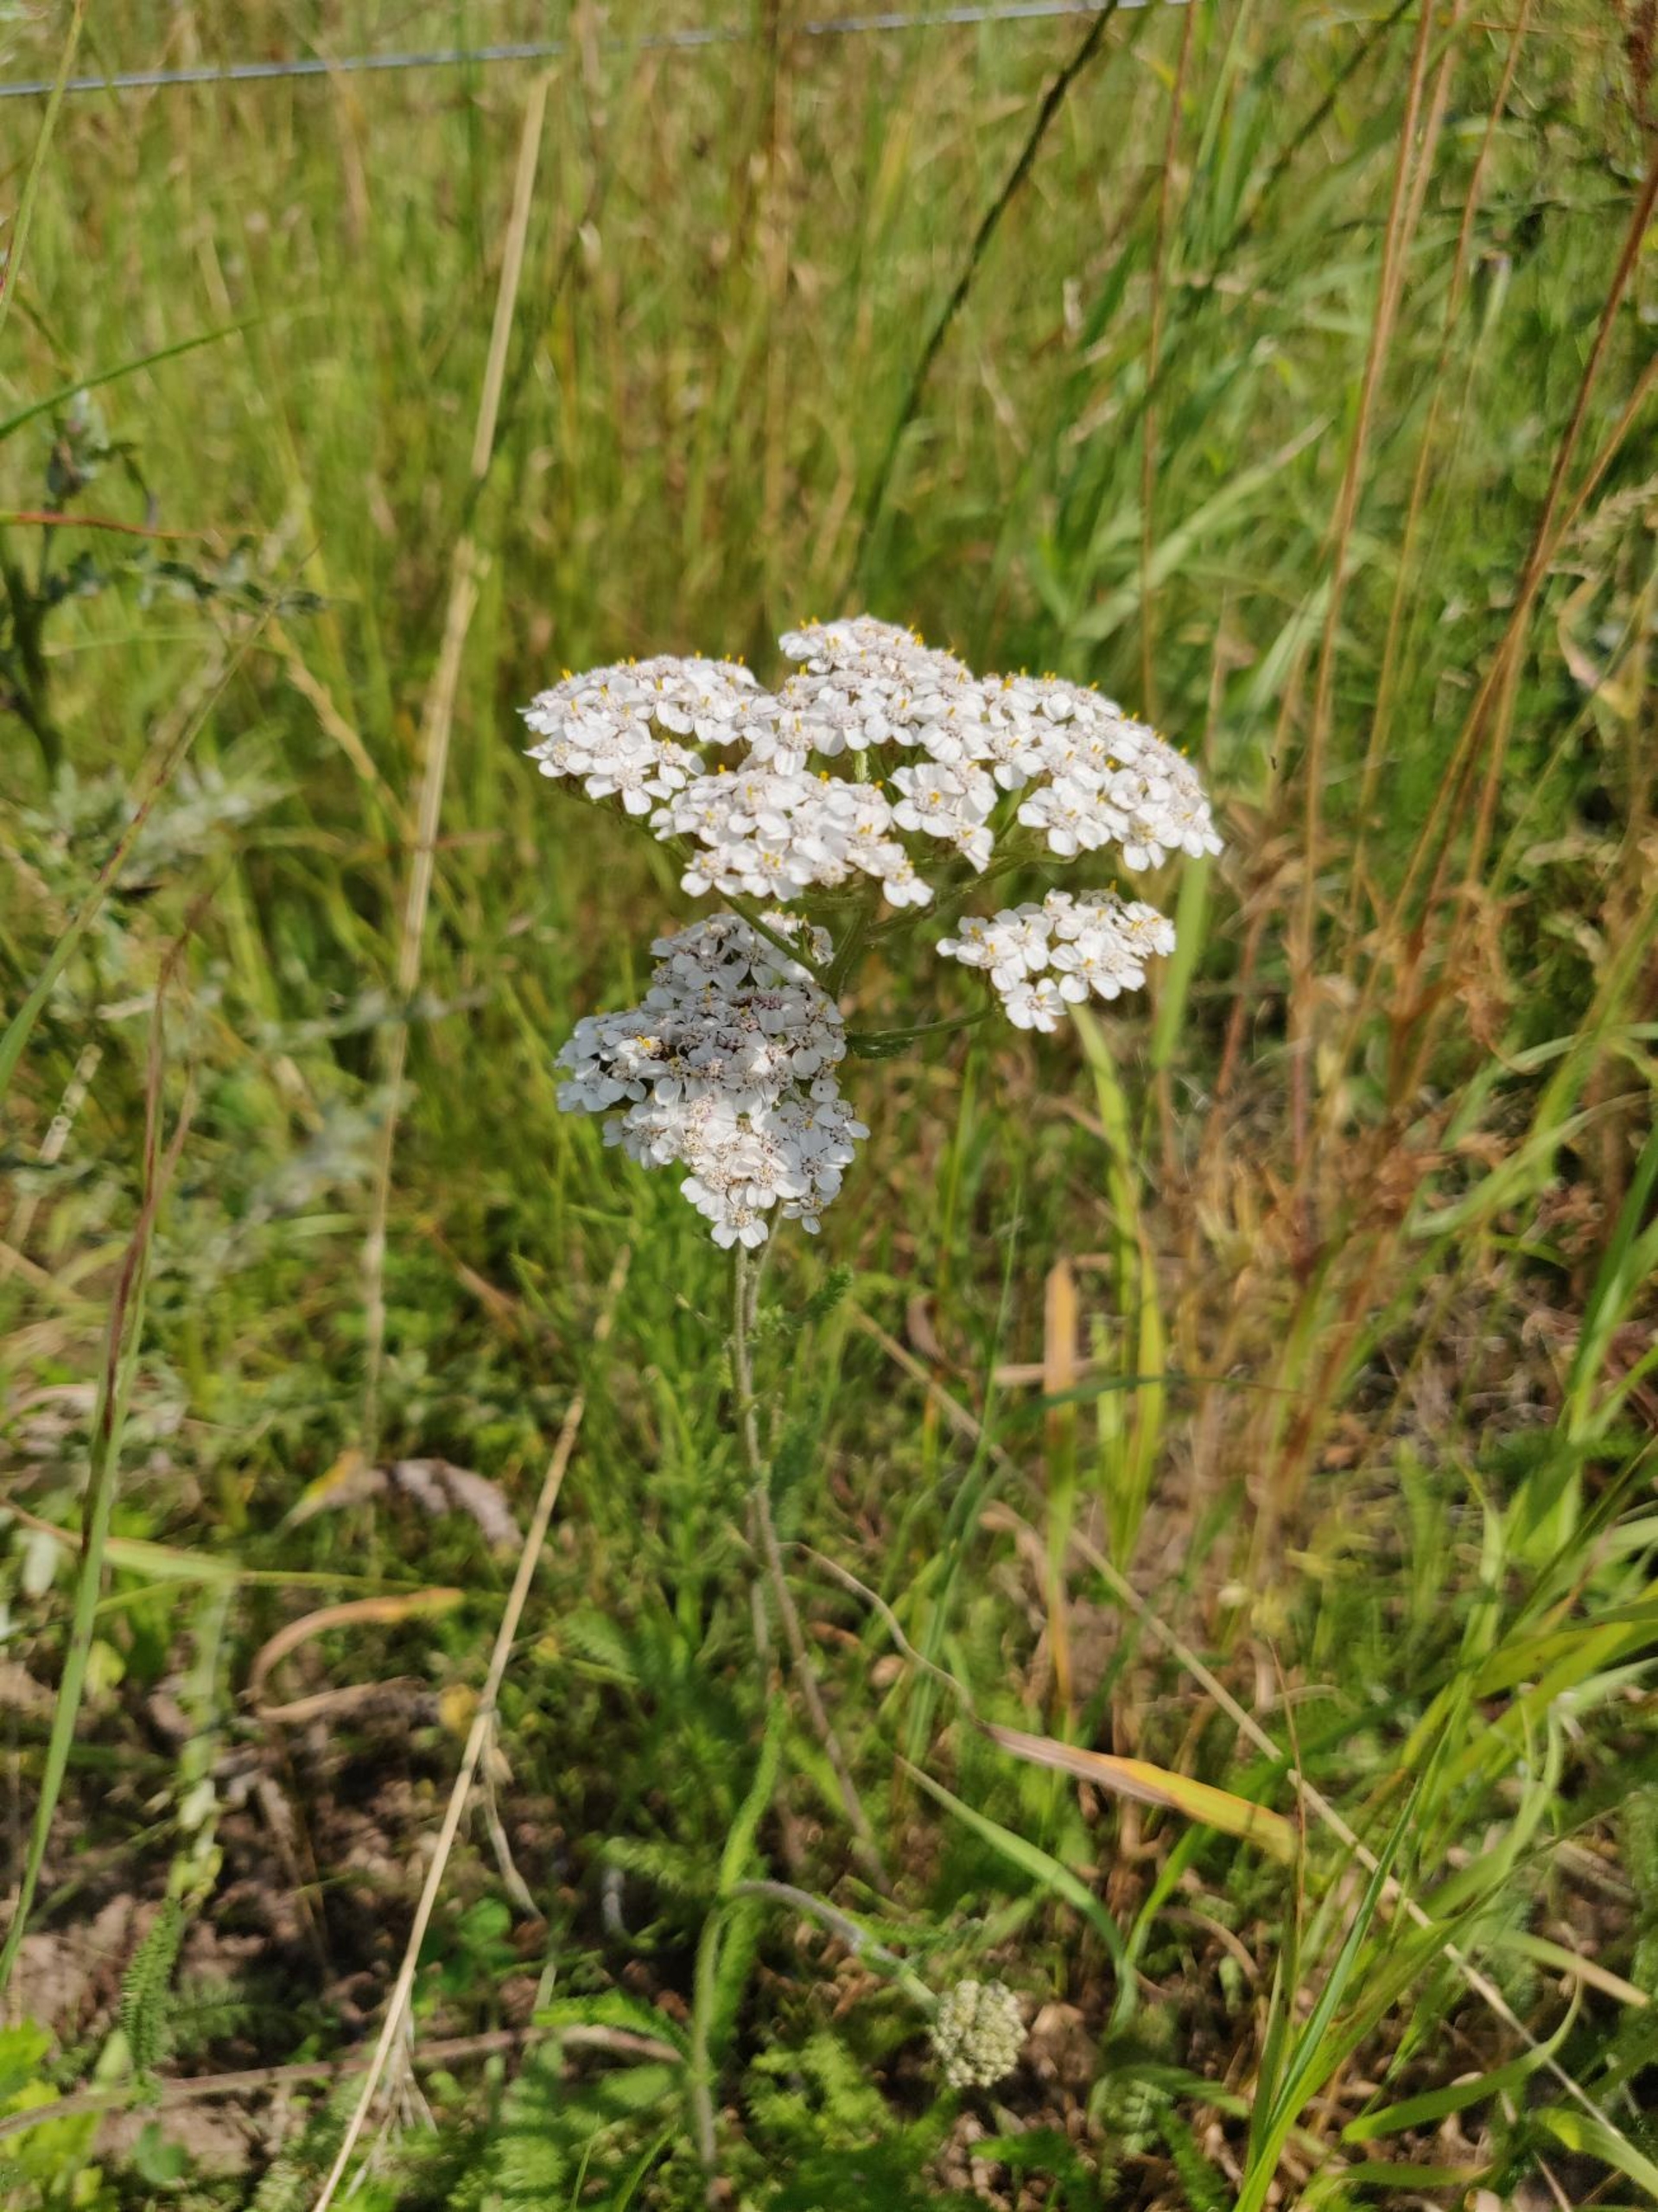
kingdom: Plantae
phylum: Tracheophyta
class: Magnoliopsida
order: Asterales
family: Asteraceae
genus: Achillea
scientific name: Achillea millefolium
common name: Almindelig røllike
